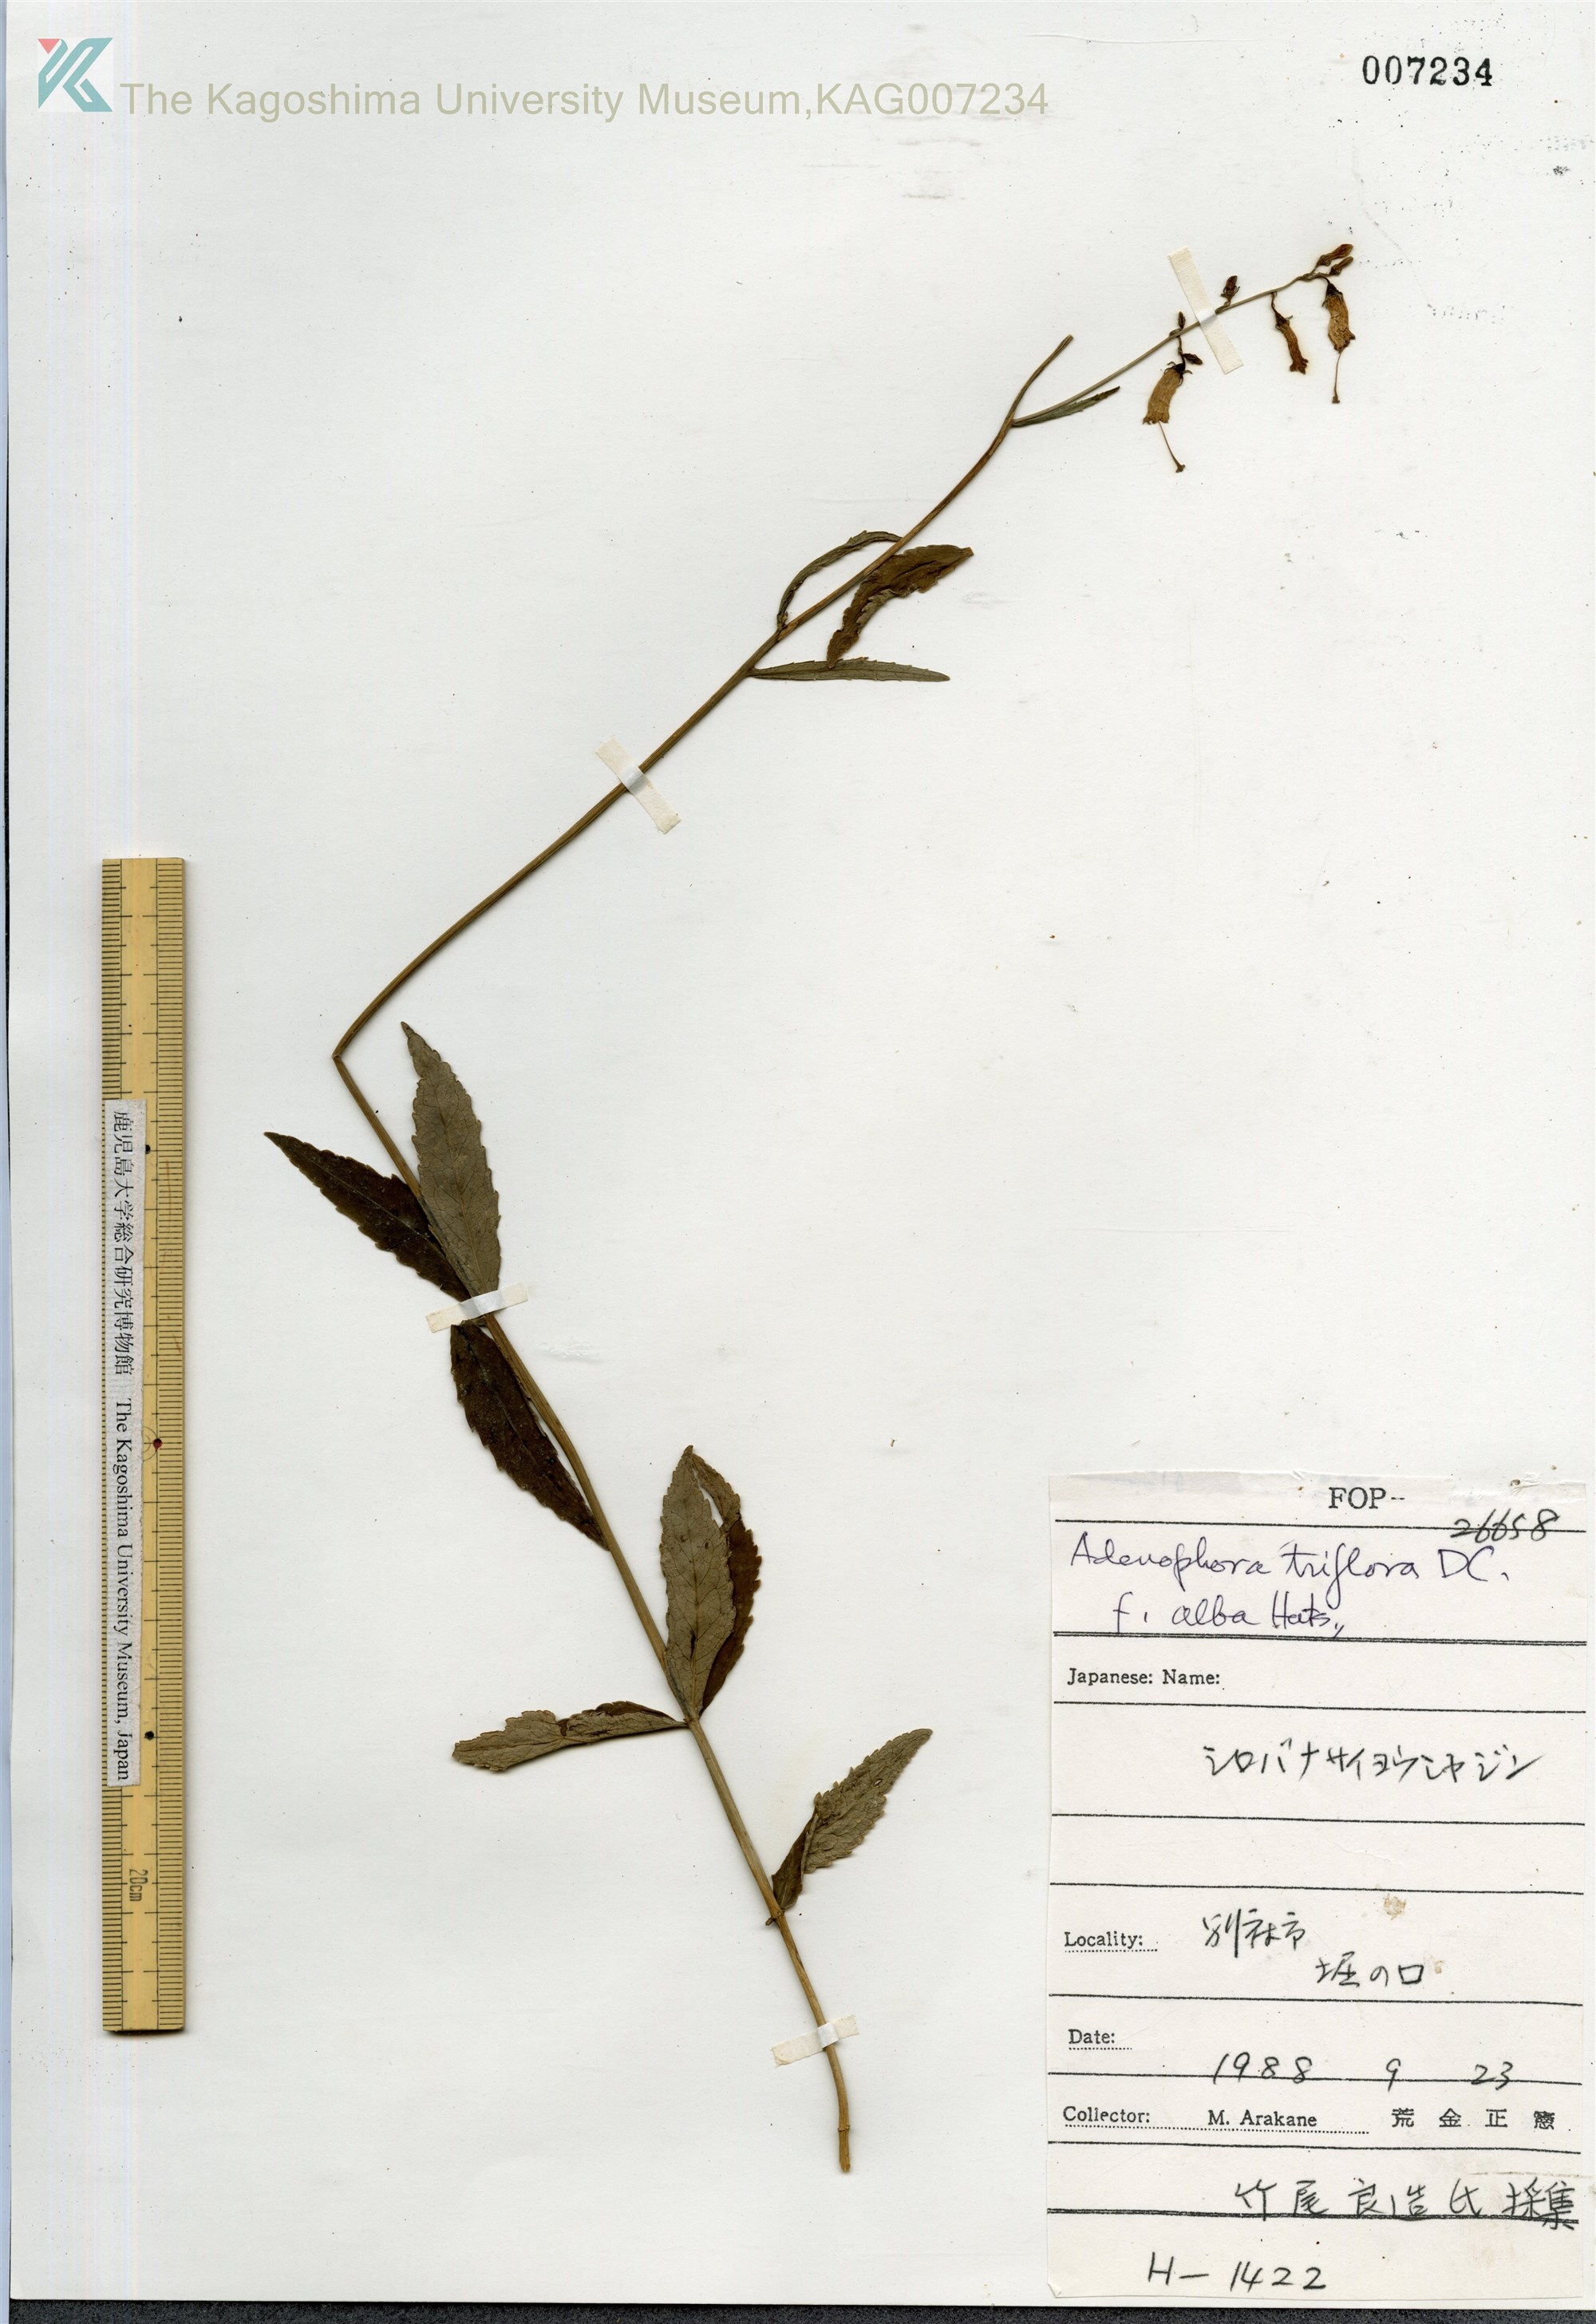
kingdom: Plantae
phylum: Tracheophyta
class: Magnoliopsida
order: Asterales
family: Campanulaceae
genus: Adenophora
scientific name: Adenophora triphylla
